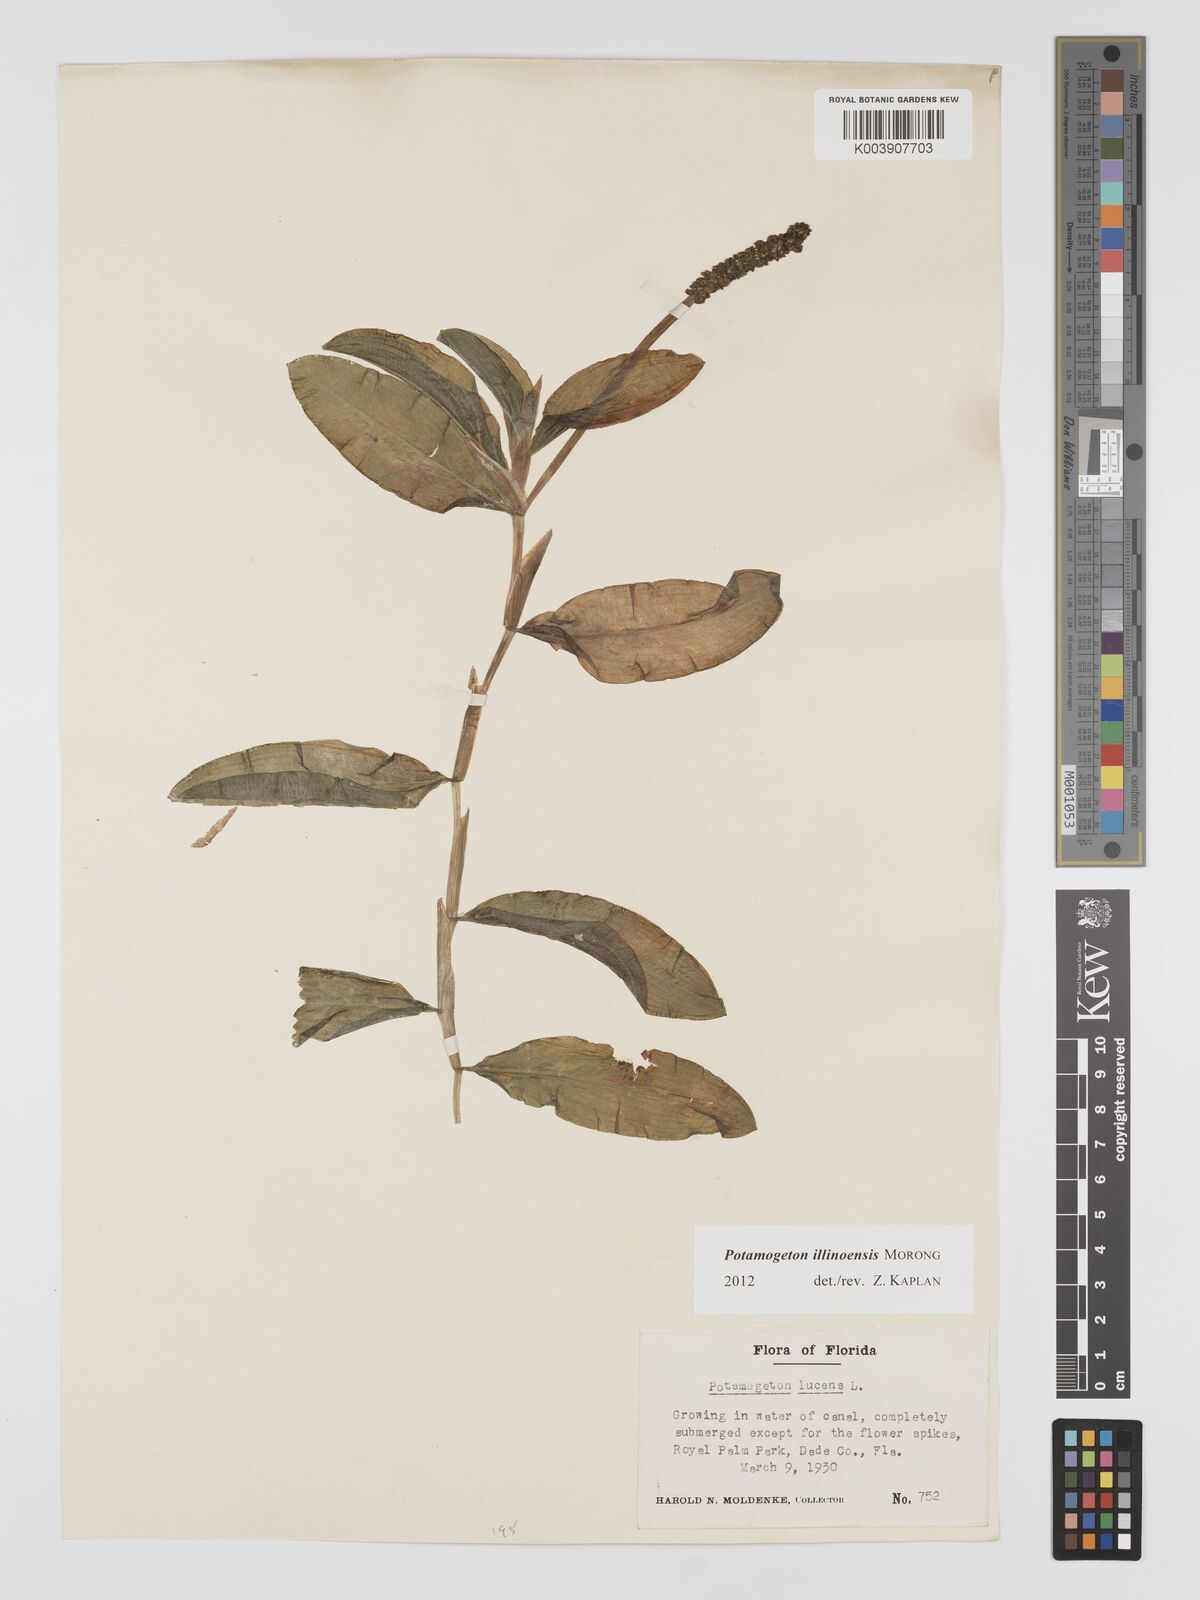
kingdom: Plantae
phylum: Tracheophyta
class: Liliopsida
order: Alismatales
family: Potamogetonaceae
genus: Potamogeton
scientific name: Potamogeton illinoensis
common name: Illinois pondweed
